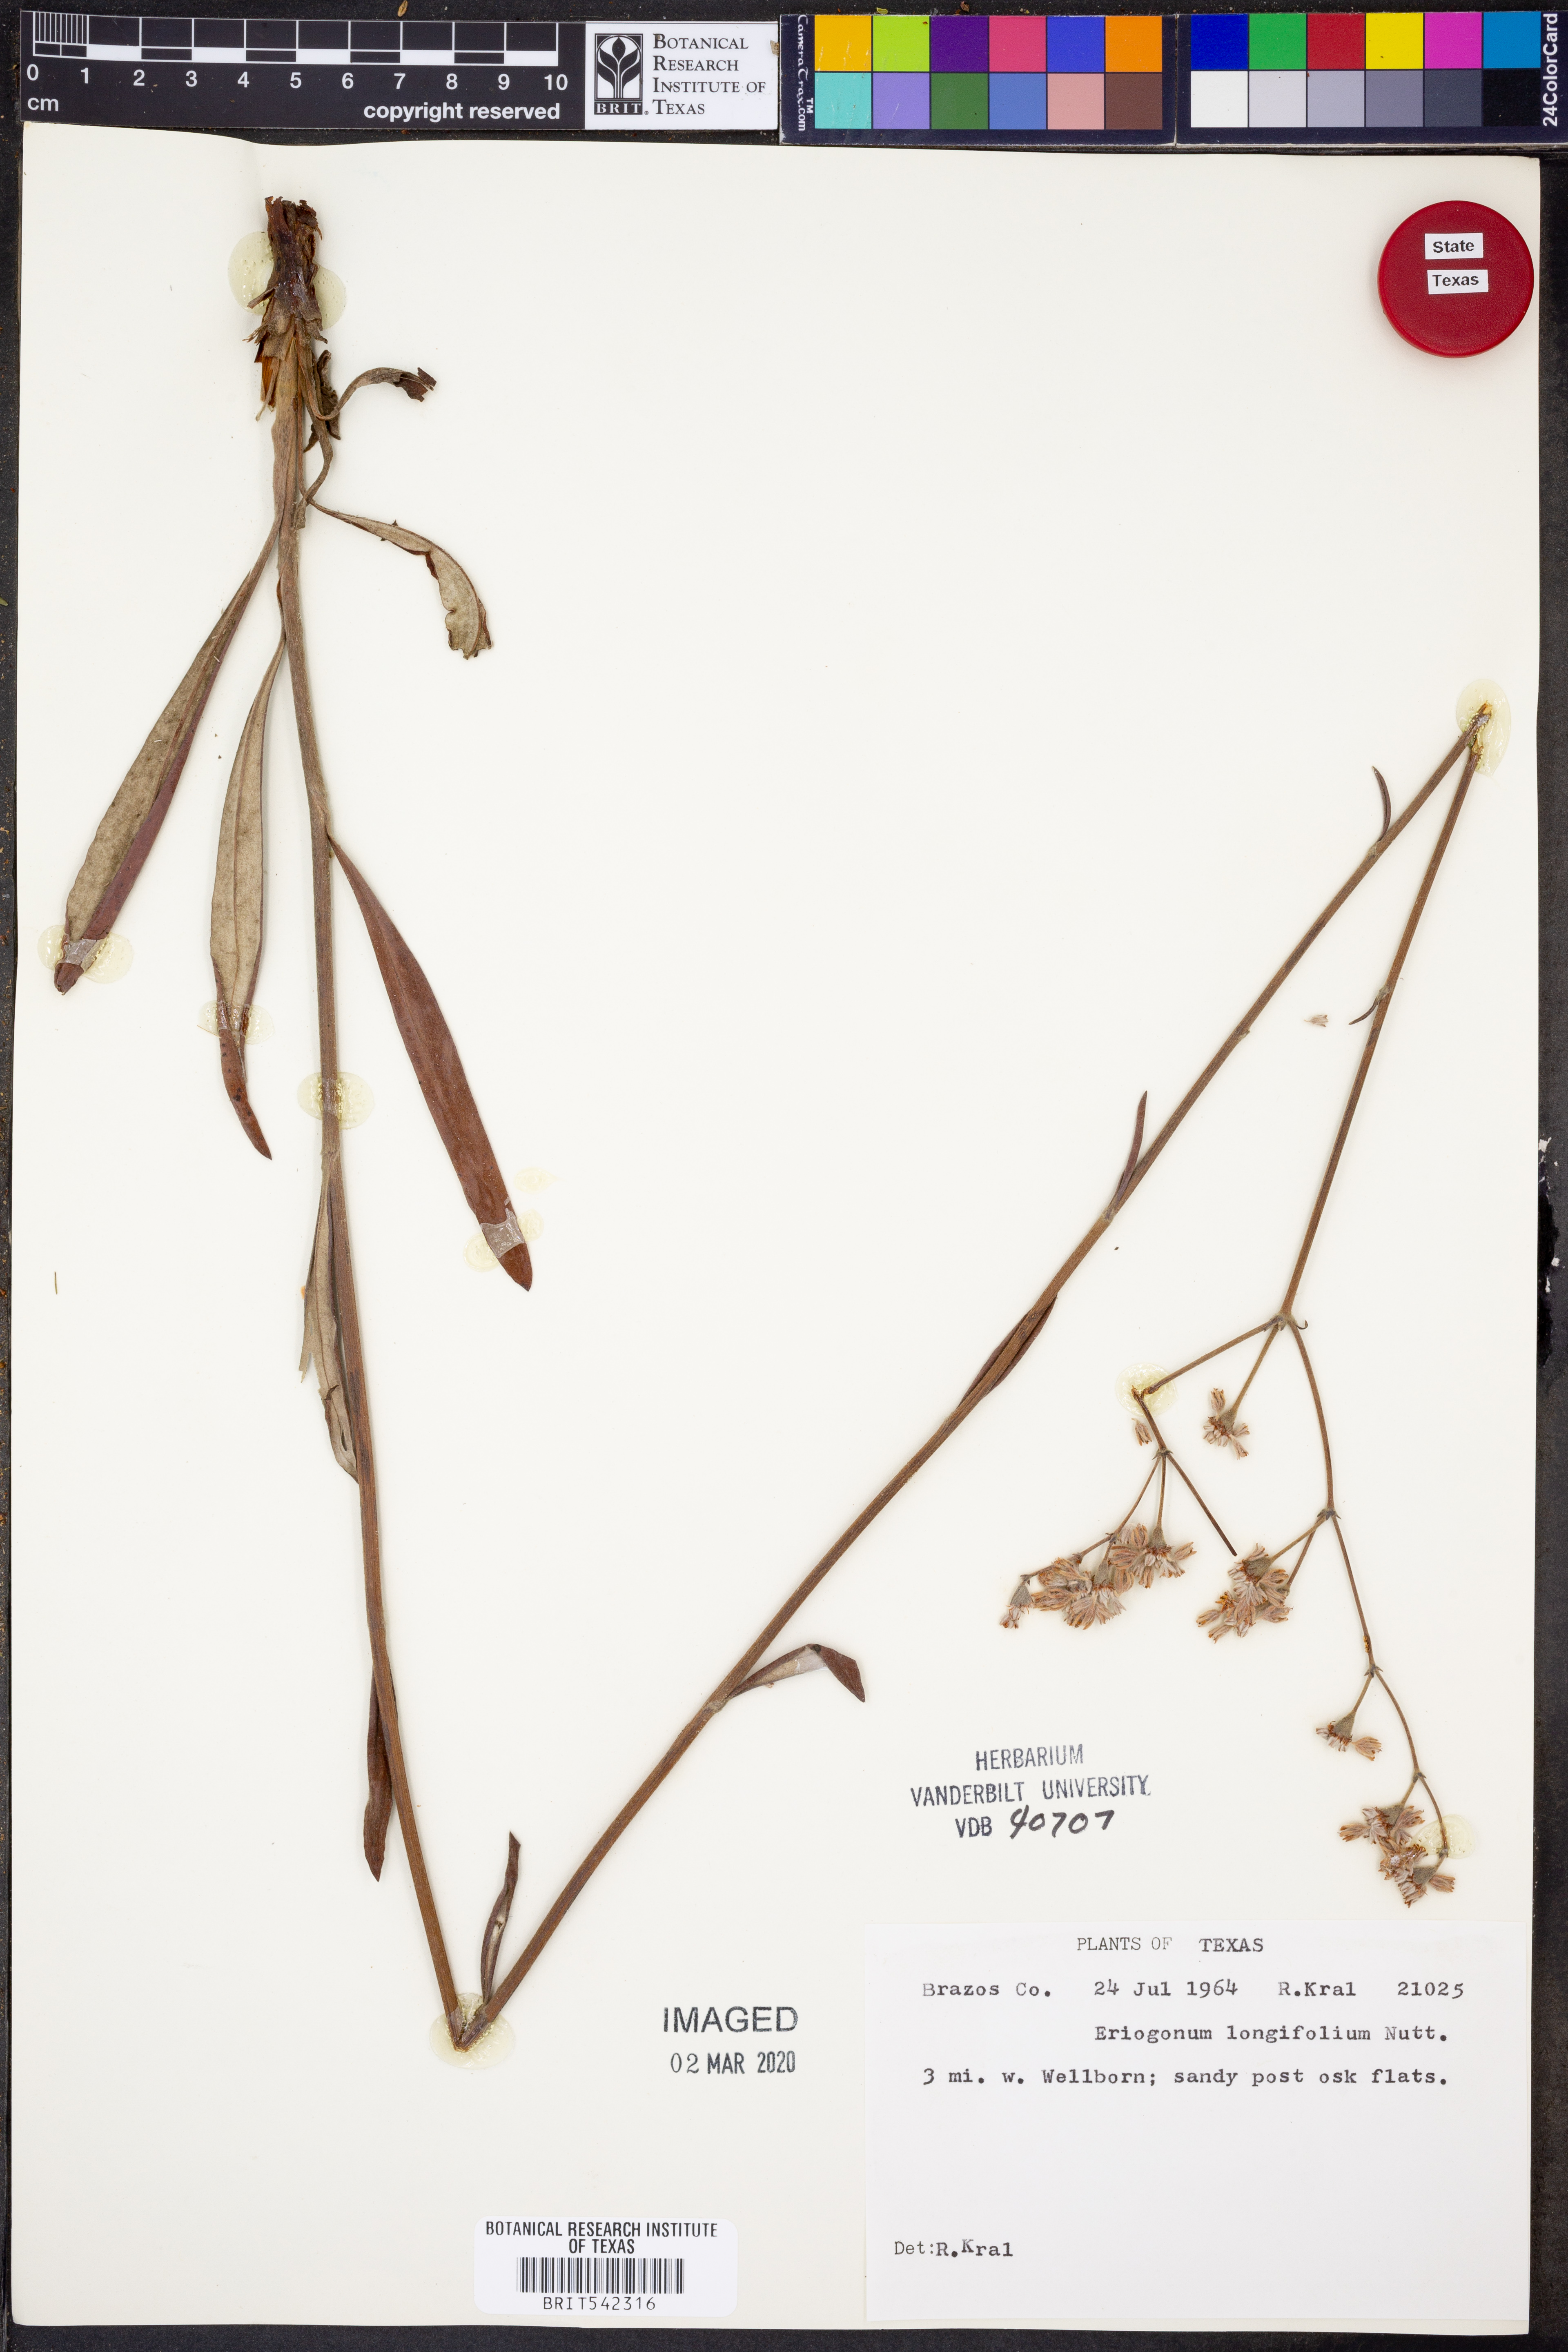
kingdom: Plantae
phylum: Tracheophyta
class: Magnoliopsida
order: Caryophyllales
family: Polygonaceae
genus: Eriogonum
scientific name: Eriogonum longifolium
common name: Longleaf wild buckwheat
